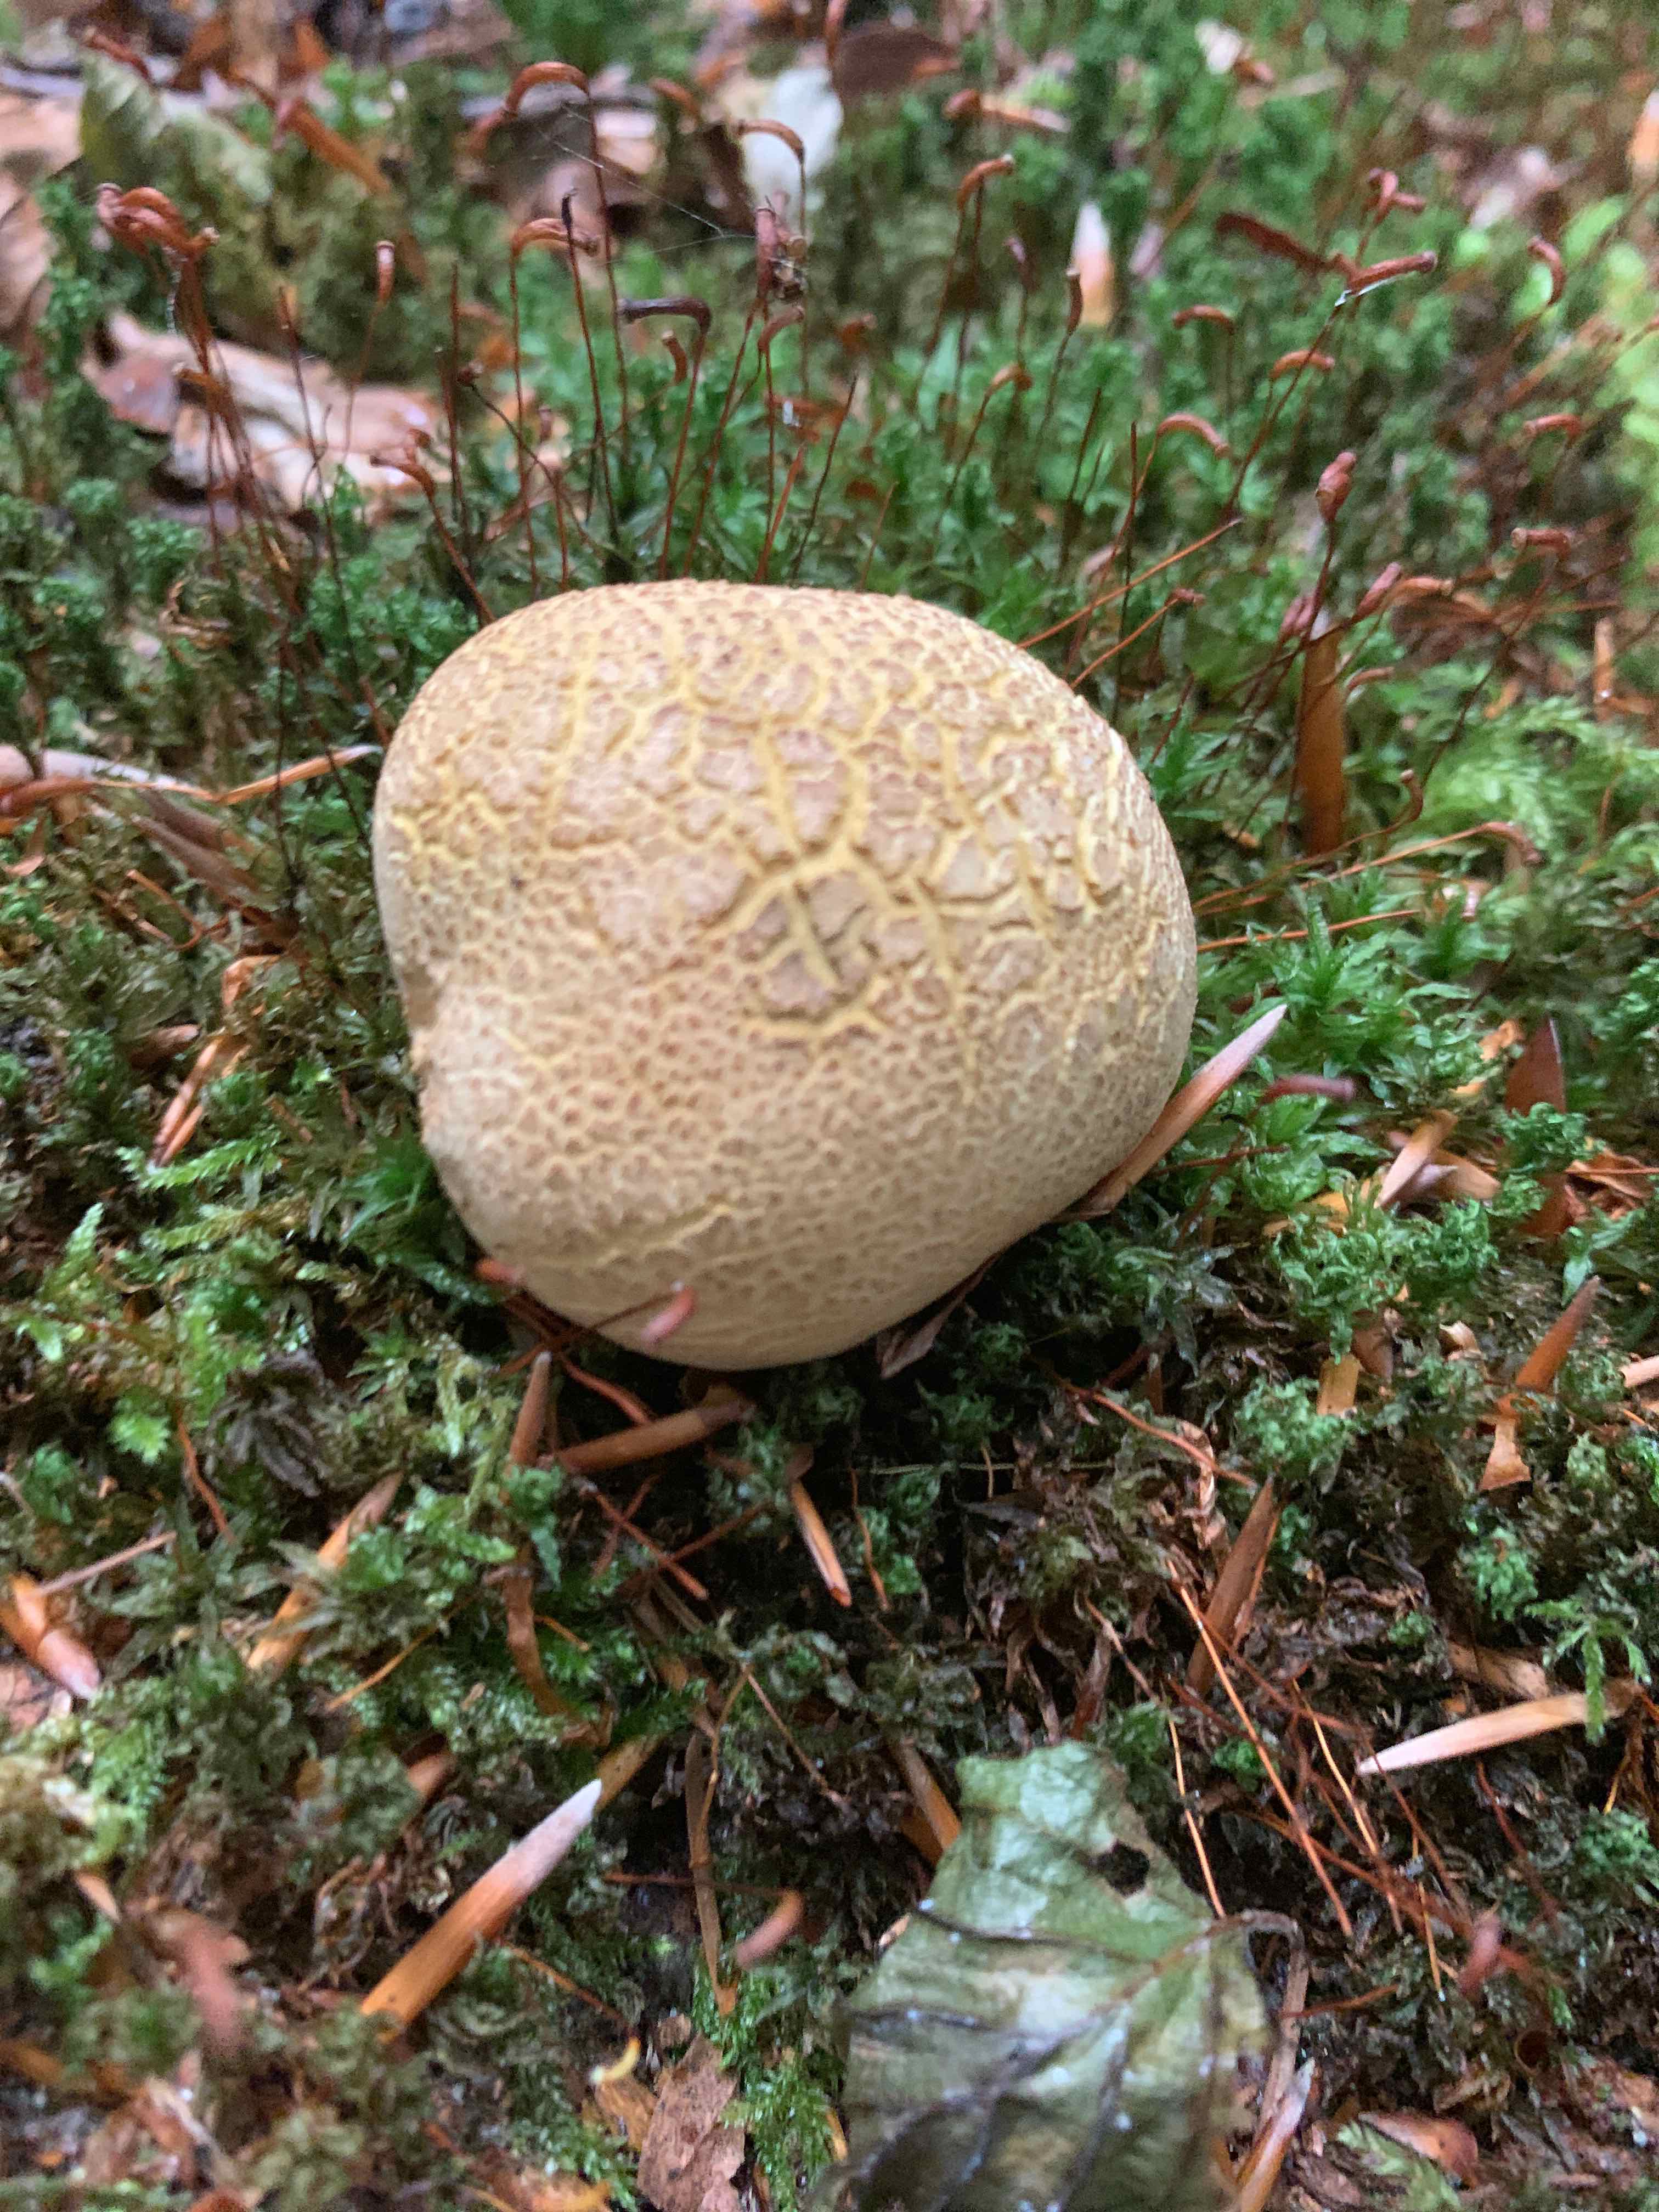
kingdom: Fungi
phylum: Basidiomycota
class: Agaricomycetes
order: Boletales
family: Sclerodermataceae
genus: Scleroderma
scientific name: Scleroderma citrinum
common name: almindelig bruskbold
